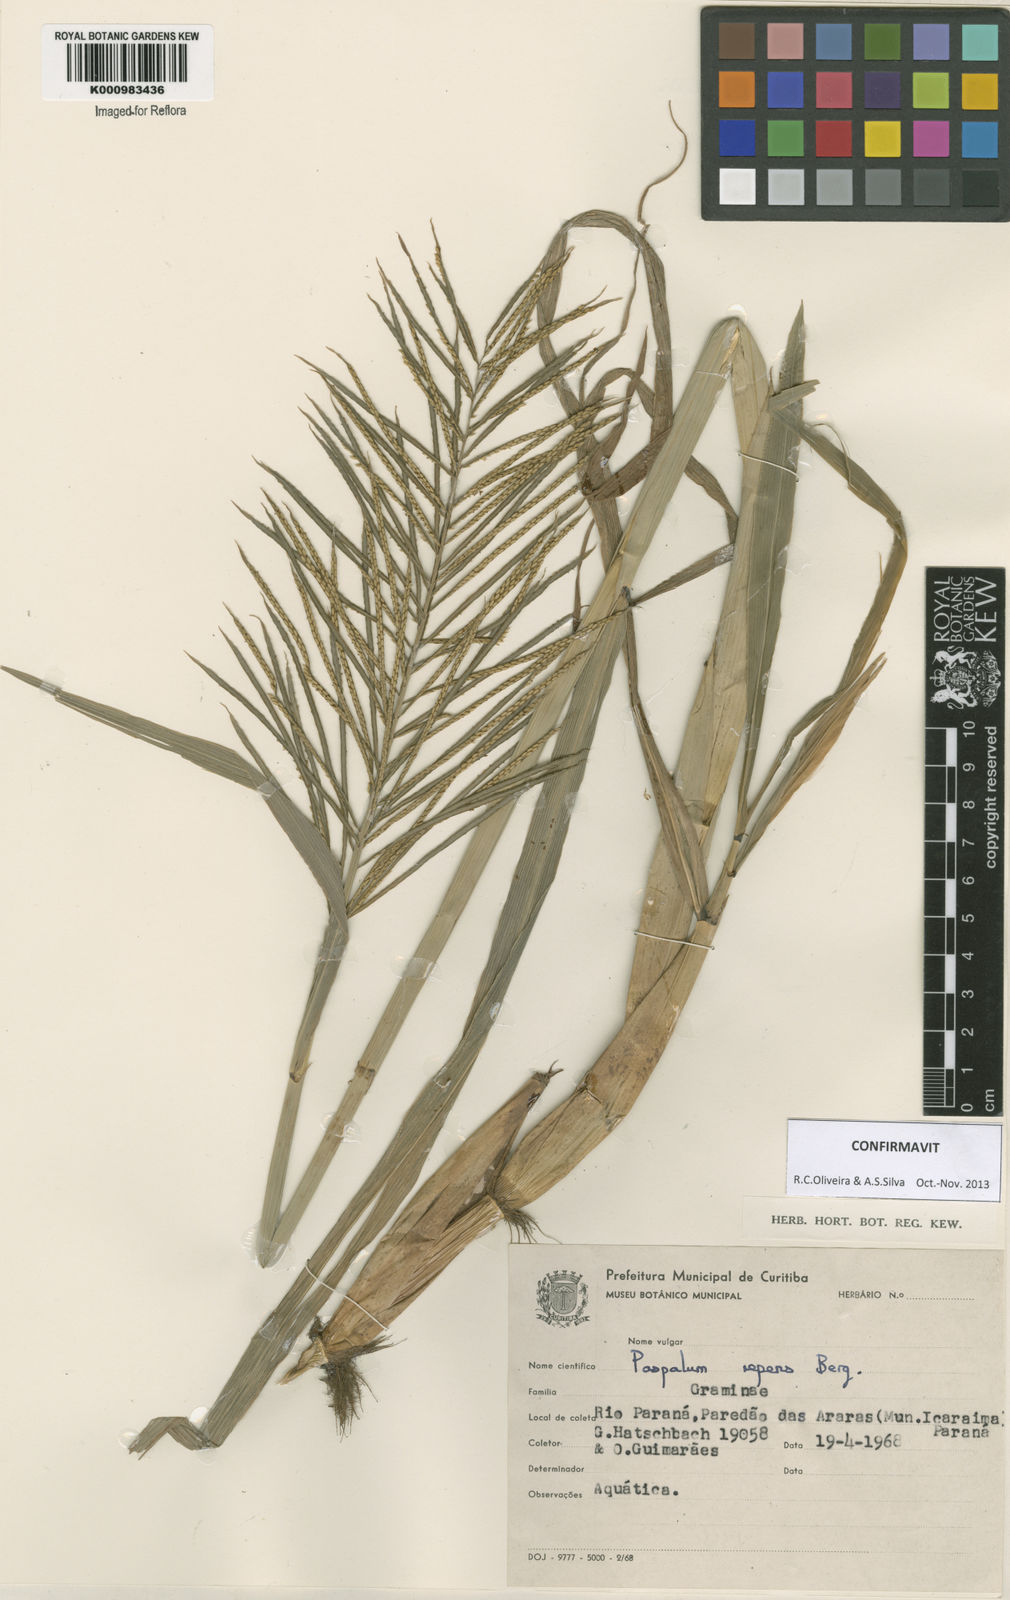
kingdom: Plantae
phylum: Tracheophyta
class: Liliopsida
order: Poales
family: Poaceae
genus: Paspalum
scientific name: Paspalum repens
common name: Water paspalum
